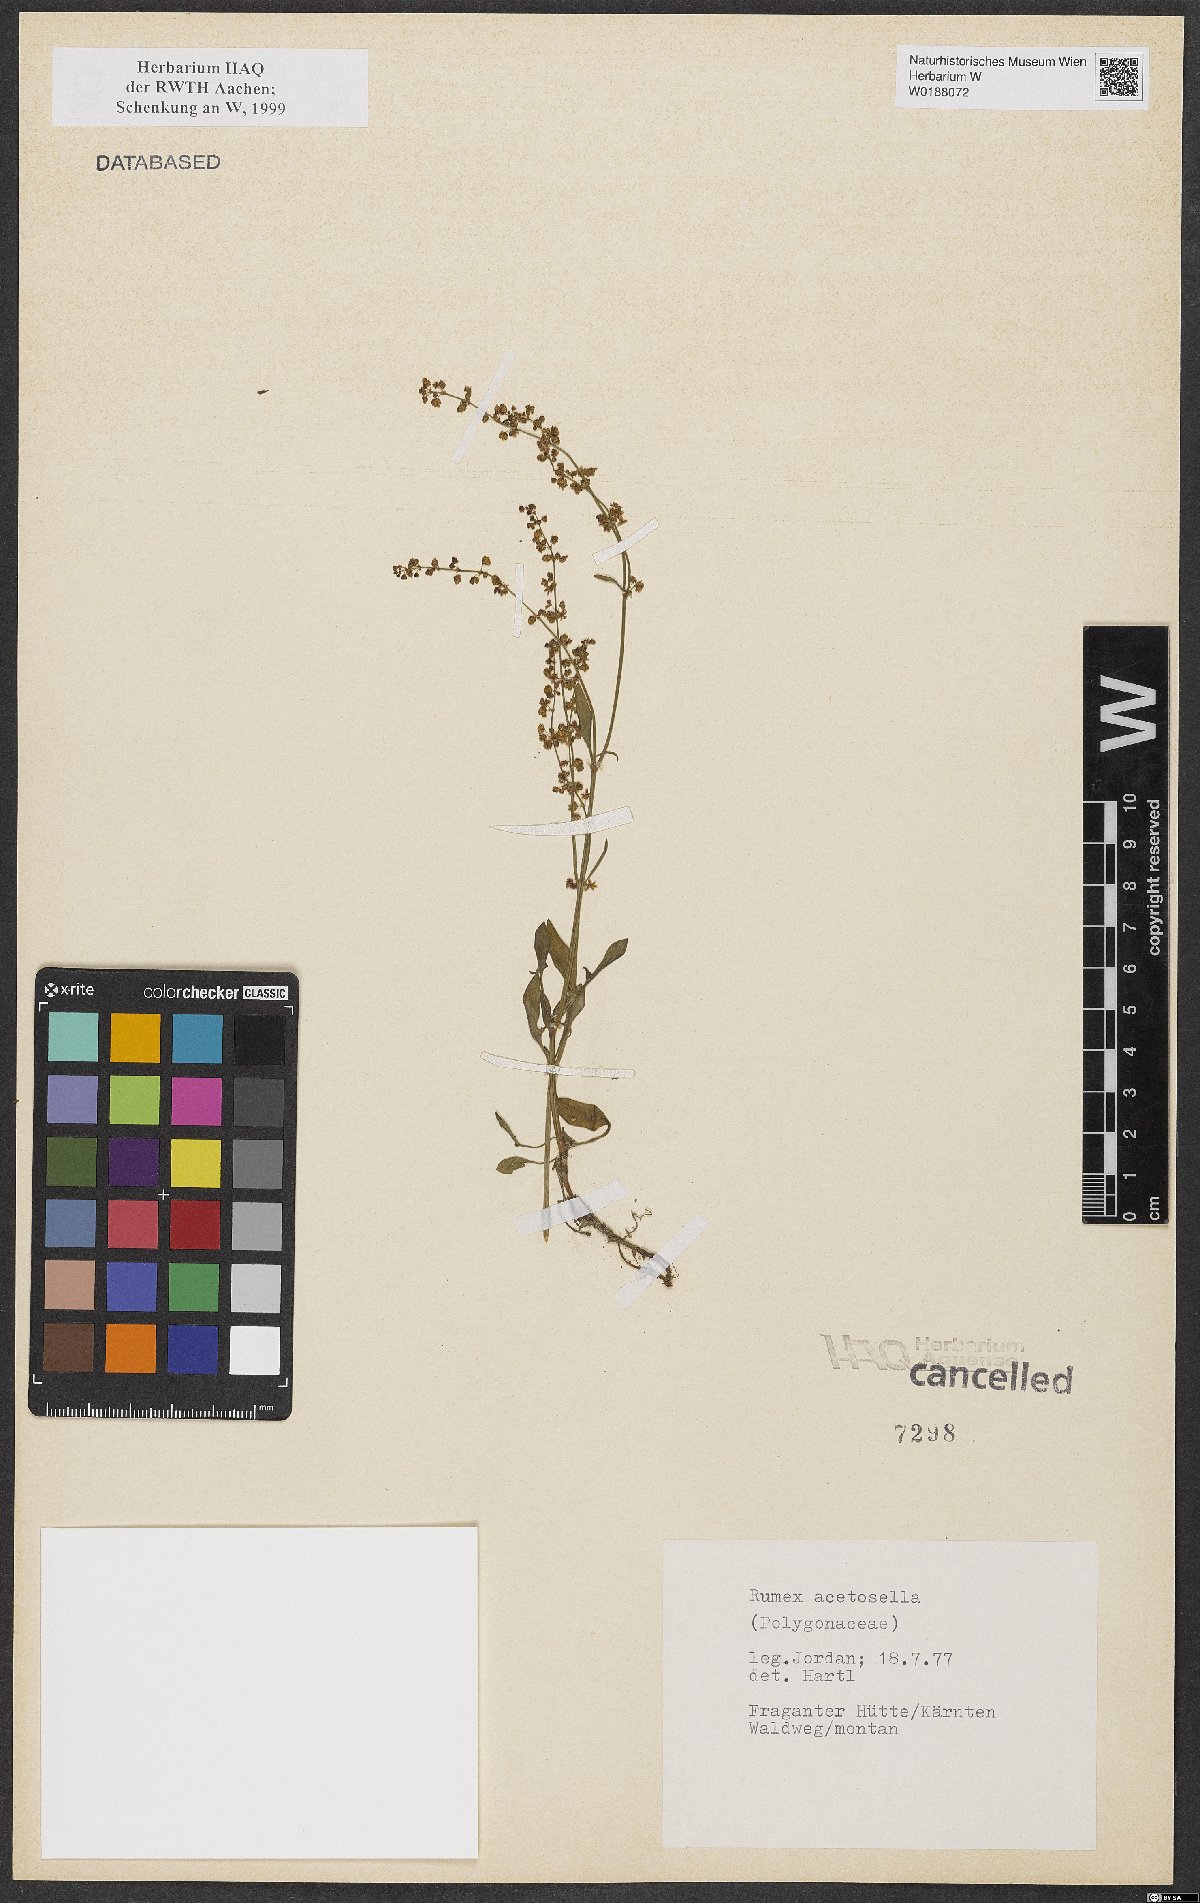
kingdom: Plantae
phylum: Tracheophyta
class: Magnoliopsida
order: Caryophyllales
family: Polygonaceae
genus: Rumex
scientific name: Rumex acetosella
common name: Common sheep sorrel
